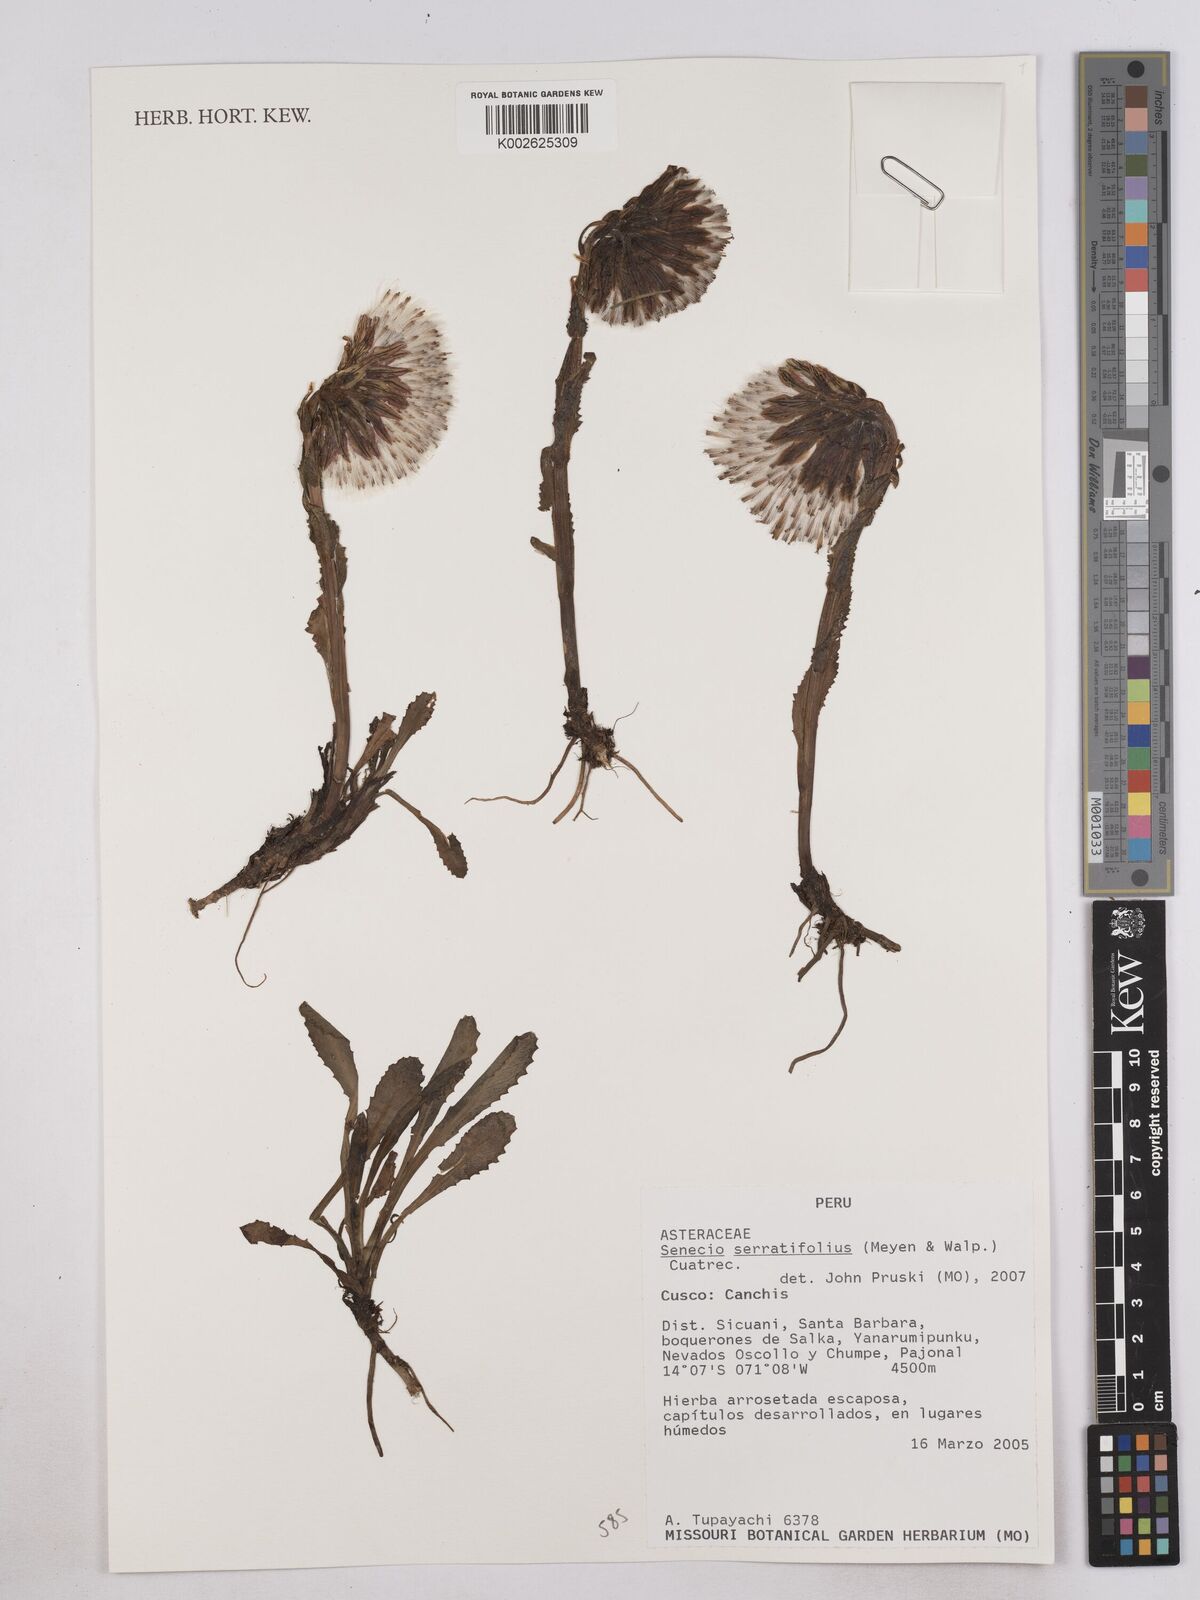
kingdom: Plantae
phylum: Tracheophyta
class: Magnoliopsida
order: Asterales
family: Asteraceae
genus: Senecio
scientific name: Senecio serratifolius
